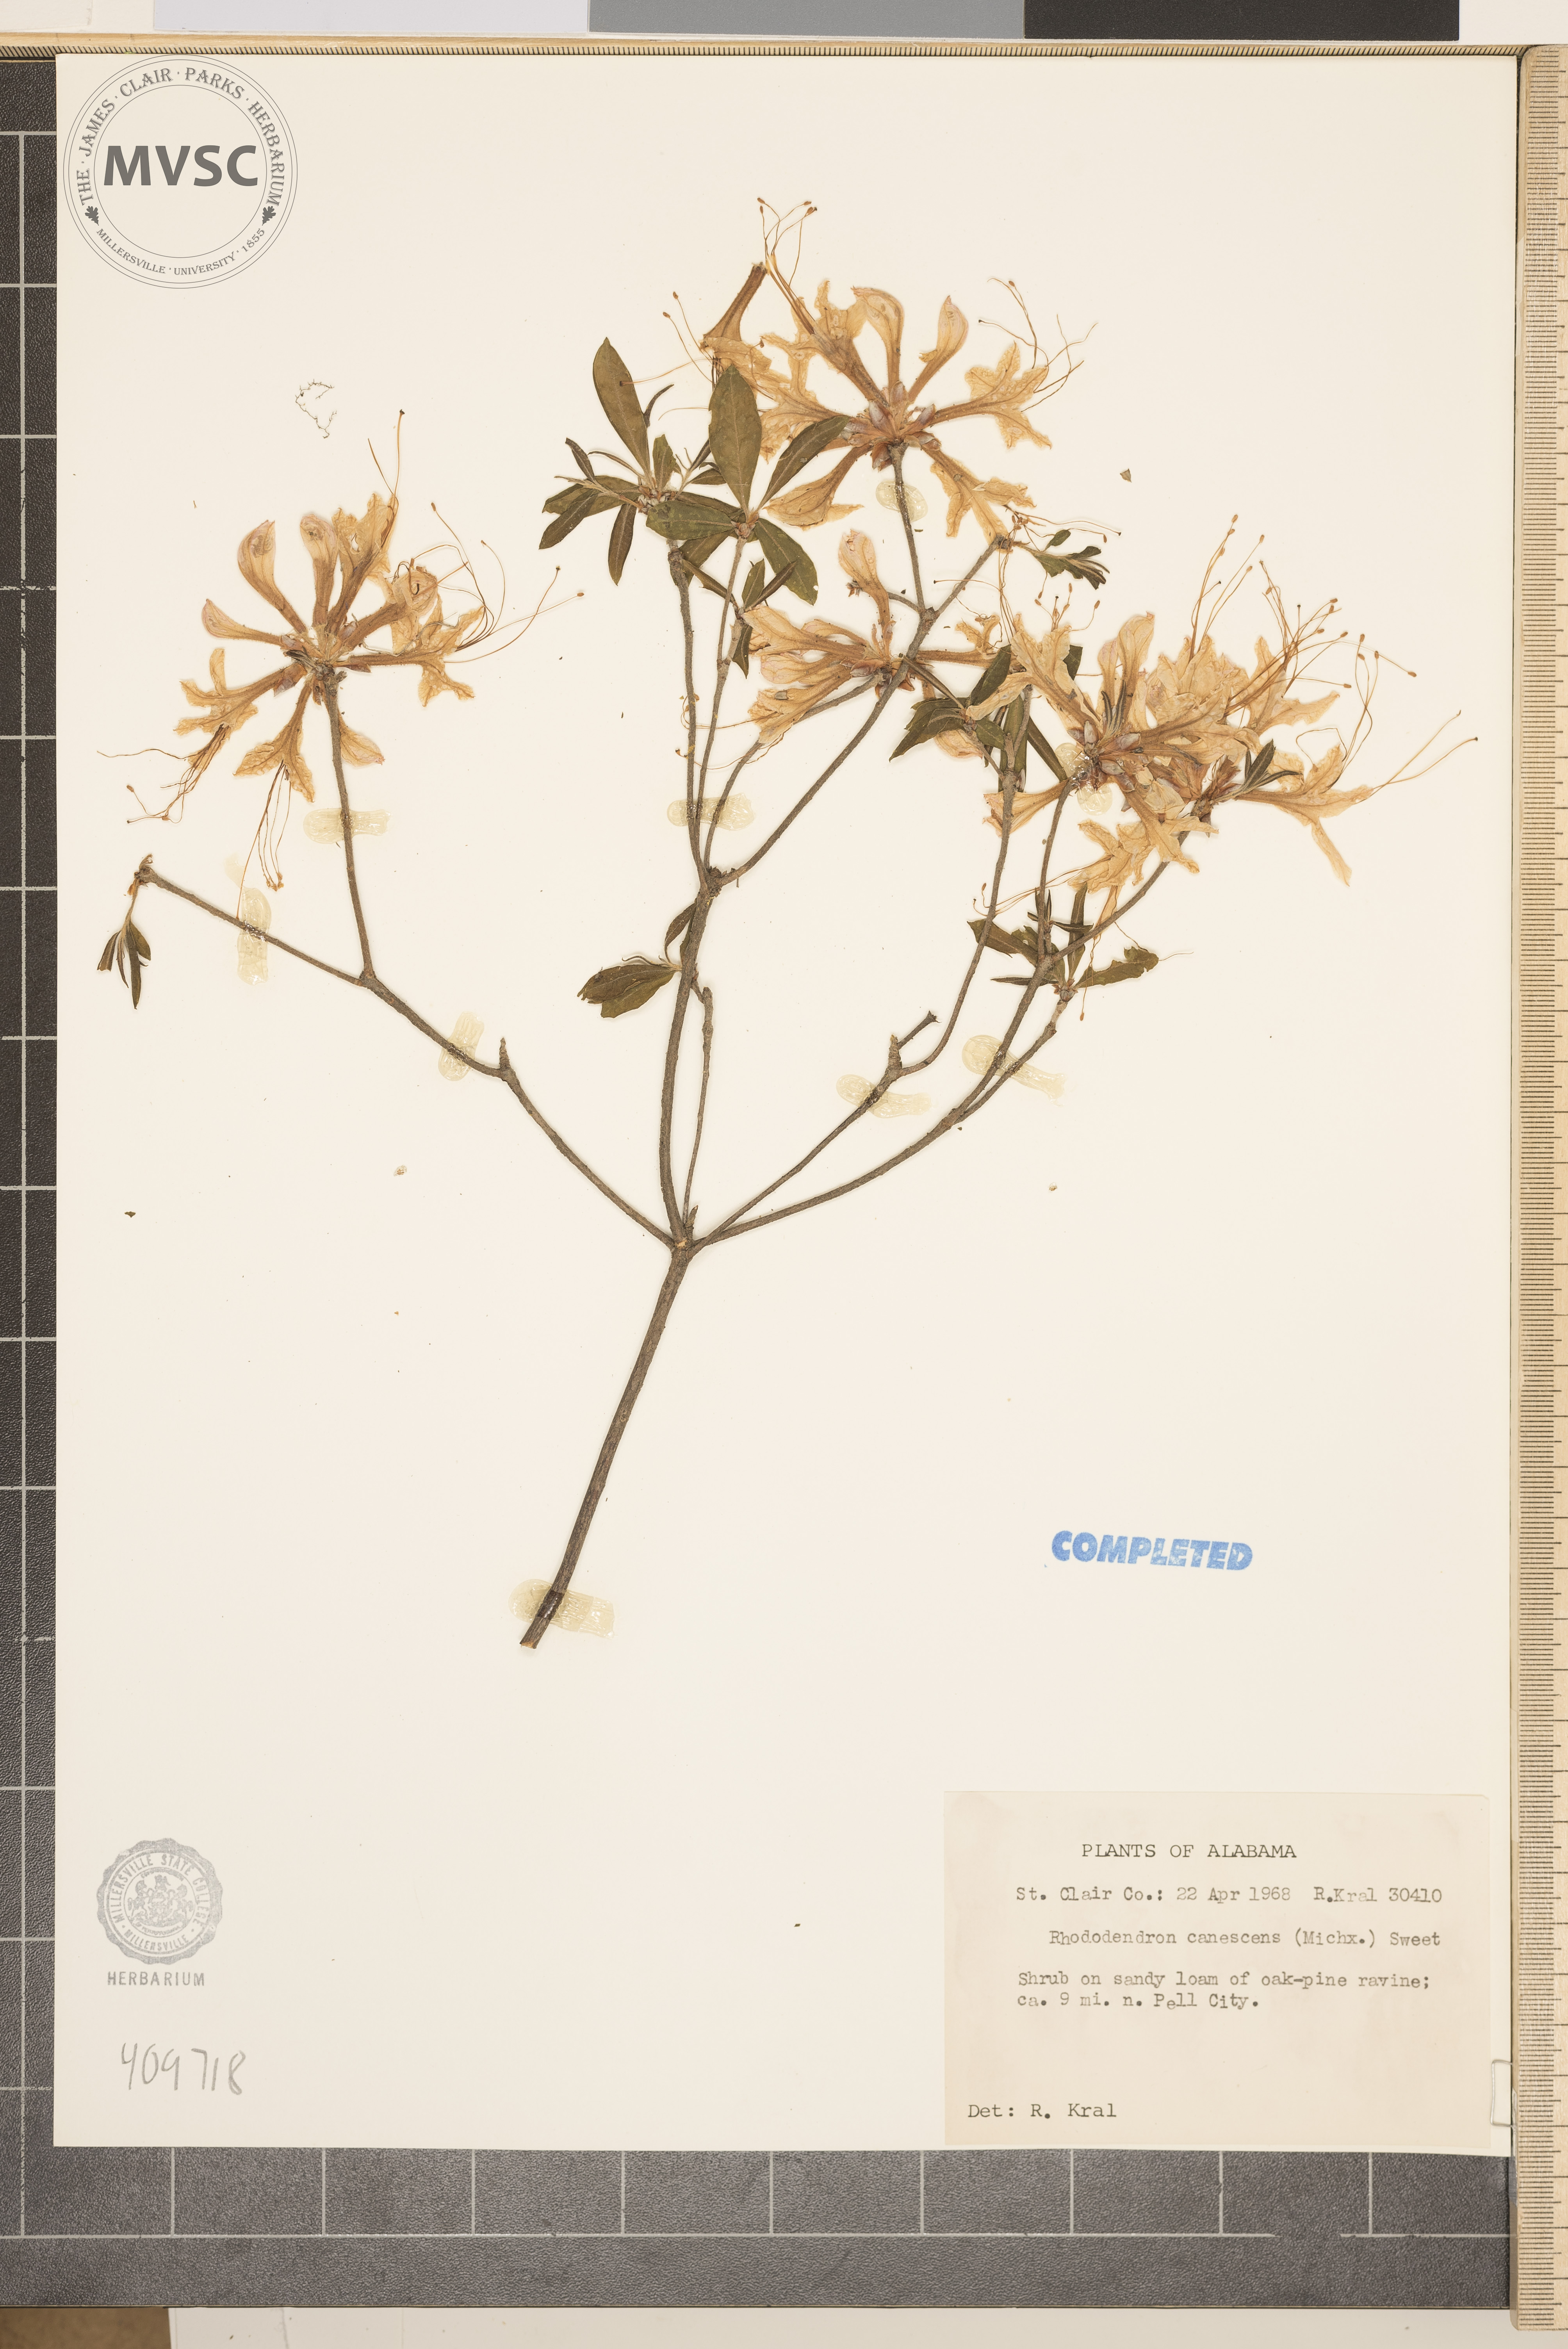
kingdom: Plantae
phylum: Tracheophyta
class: Magnoliopsida
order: Ericales
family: Ericaceae
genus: Rhododendron
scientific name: Rhododendron canescens
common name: Mountain azalea
